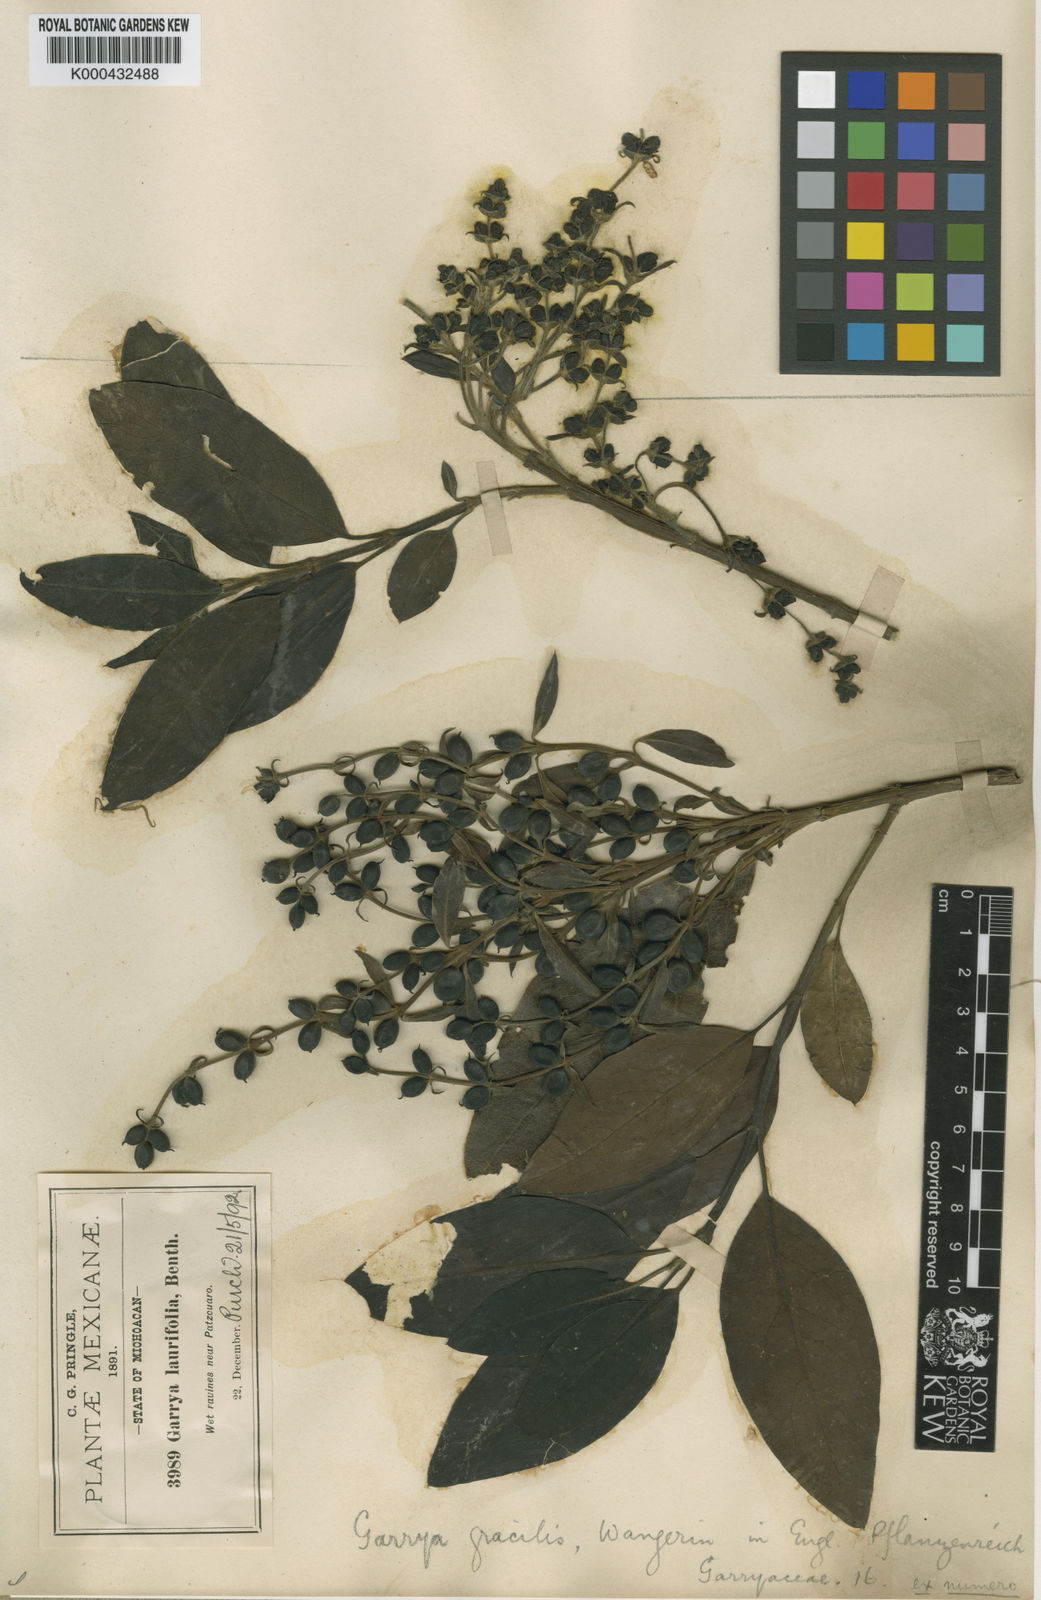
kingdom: Plantae
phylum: Tracheophyta
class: Magnoliopsida
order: Garryales
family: Garryaceae
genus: Garrya
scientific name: Garrya longifolia
